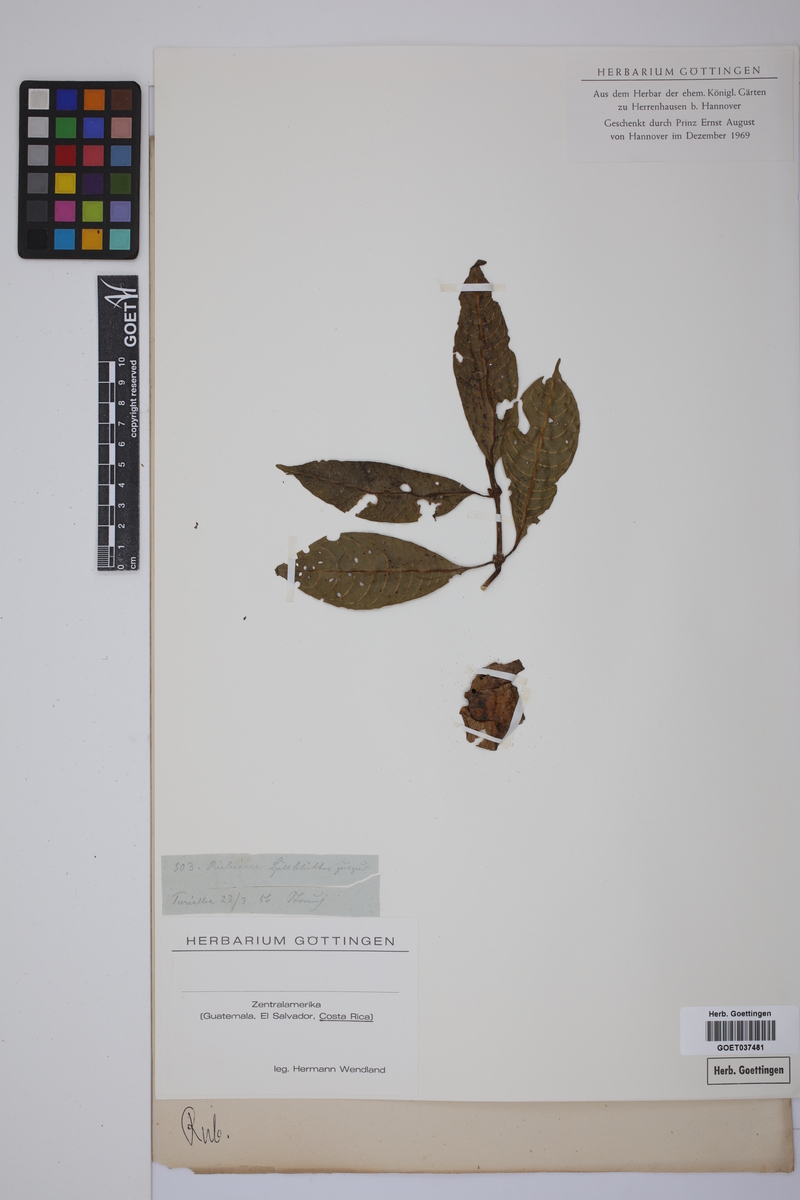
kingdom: Plantae
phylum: Tracheophyta
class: Magnoliopsida
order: Gentianales
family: Rubiaceae
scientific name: Rubiaceae
